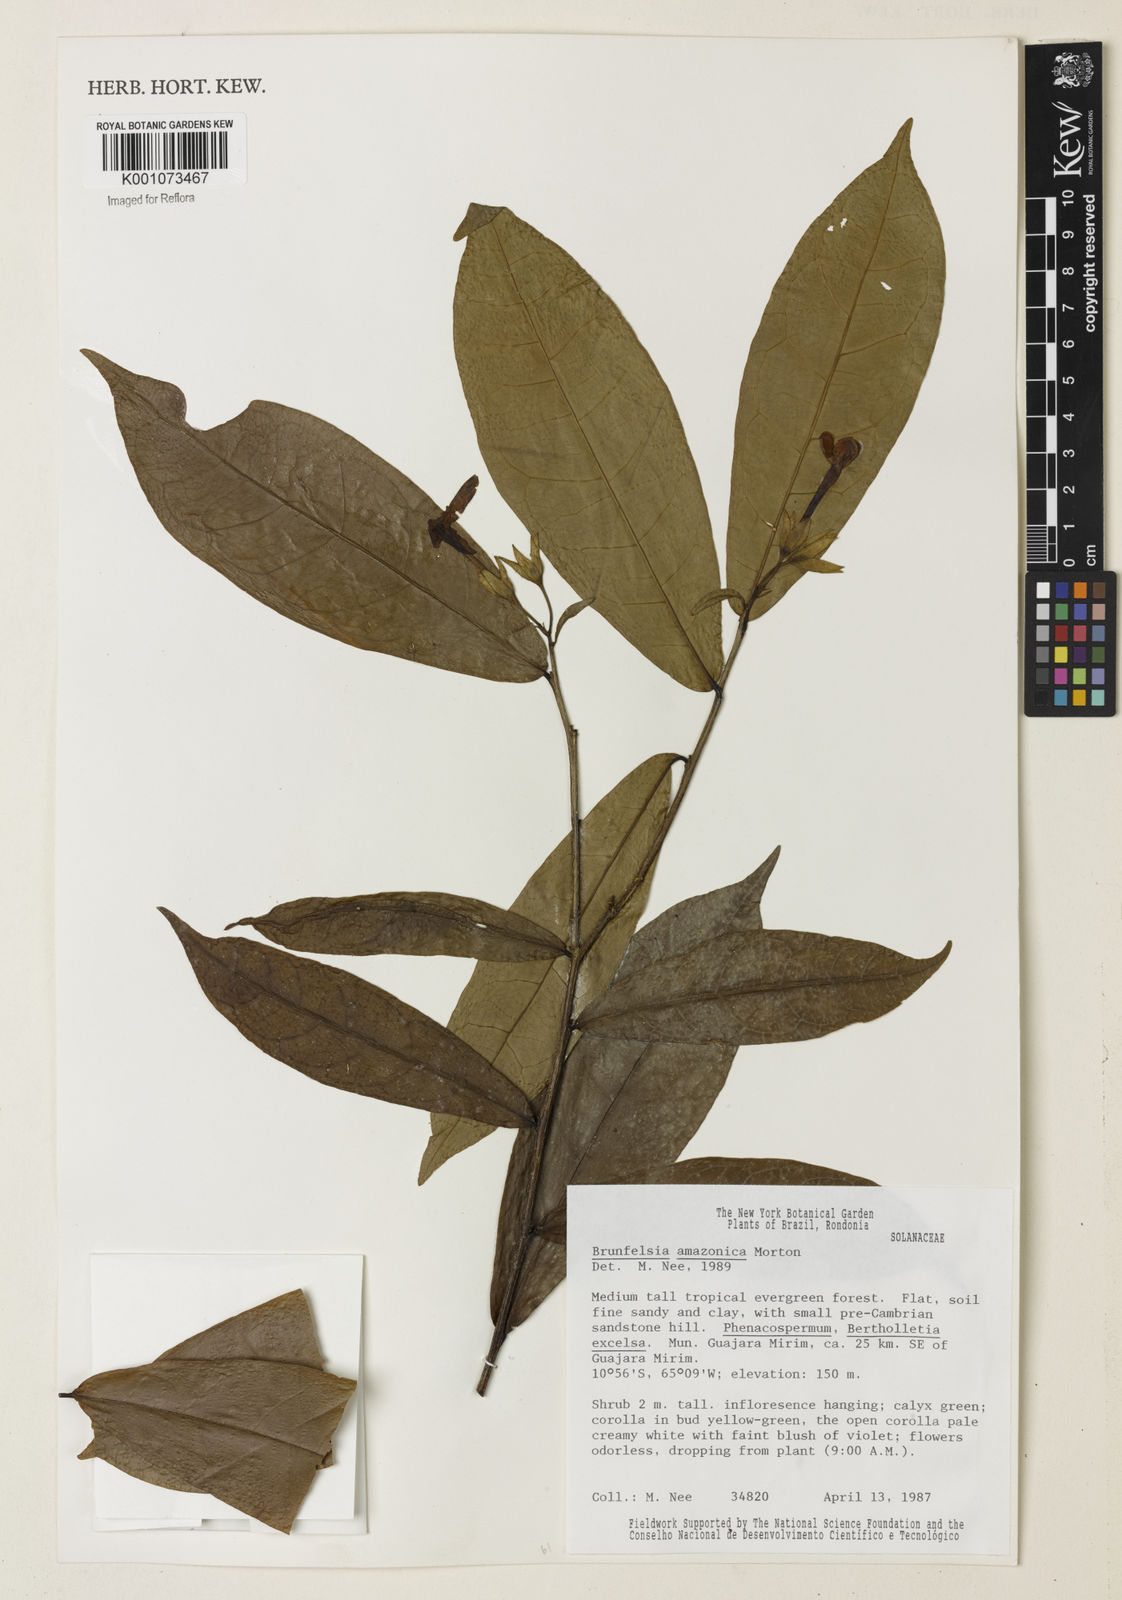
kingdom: Plantae
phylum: Tracheophyta
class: Magnoliopsida
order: Solanales
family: Solanaceae
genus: Brunfelsia
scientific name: Brunfelsia amazonica
